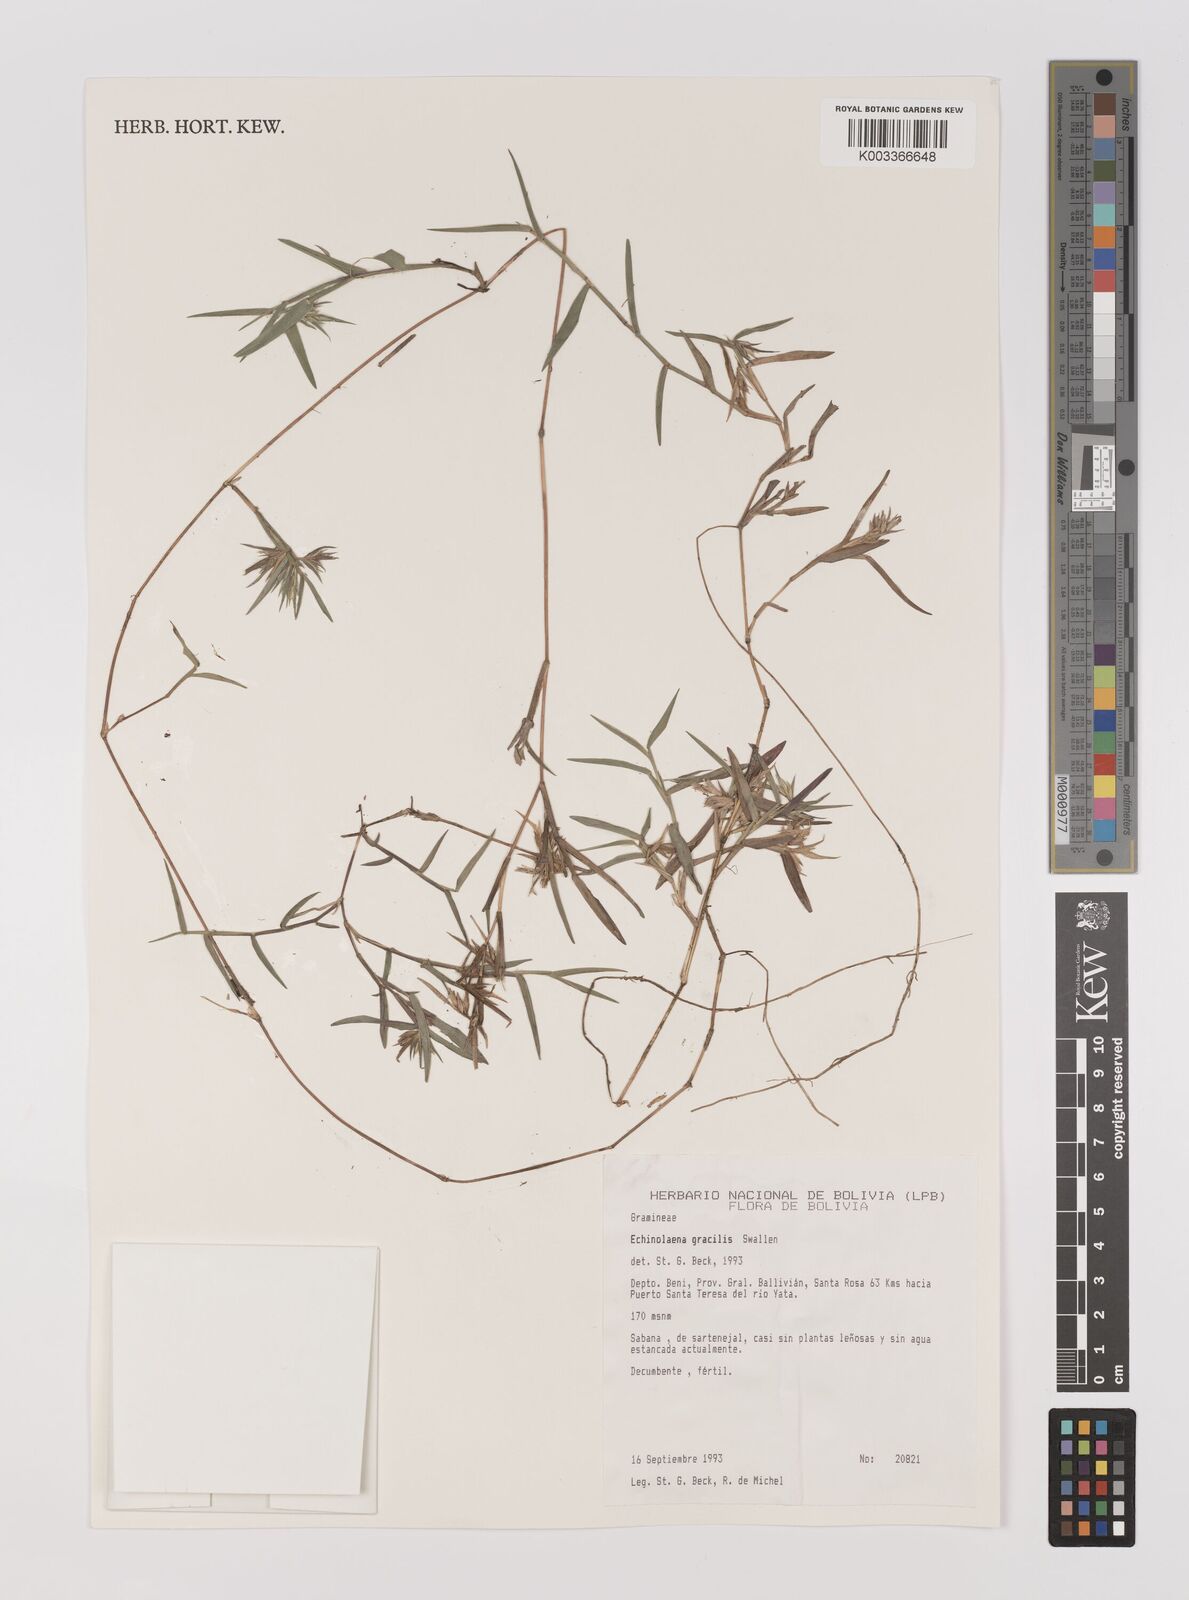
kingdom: Plantae
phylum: Tracheophyta
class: Liliopsida
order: Poales
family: Poaceae
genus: Echinolaena
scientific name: Echinolaena gracilis
